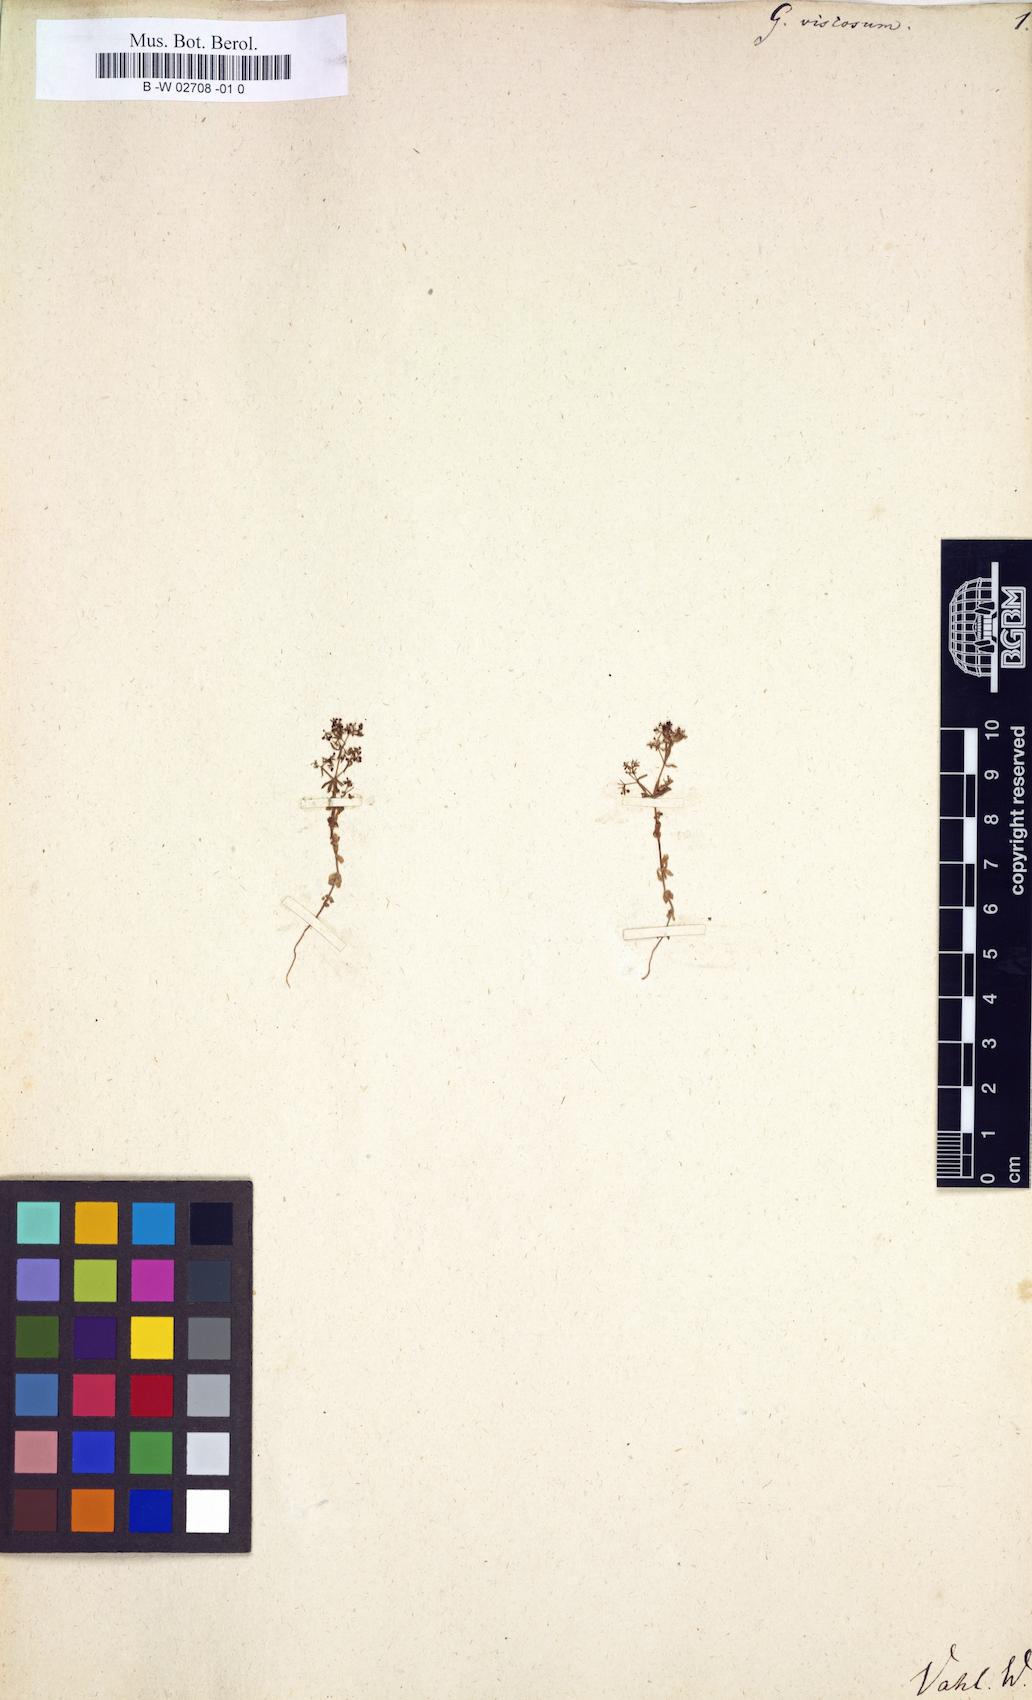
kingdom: Plantae
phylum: Tracheophyta
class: Magnoliopsida
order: Gentianales
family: Rubiaceae
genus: Galium
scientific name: Galium viscosum
